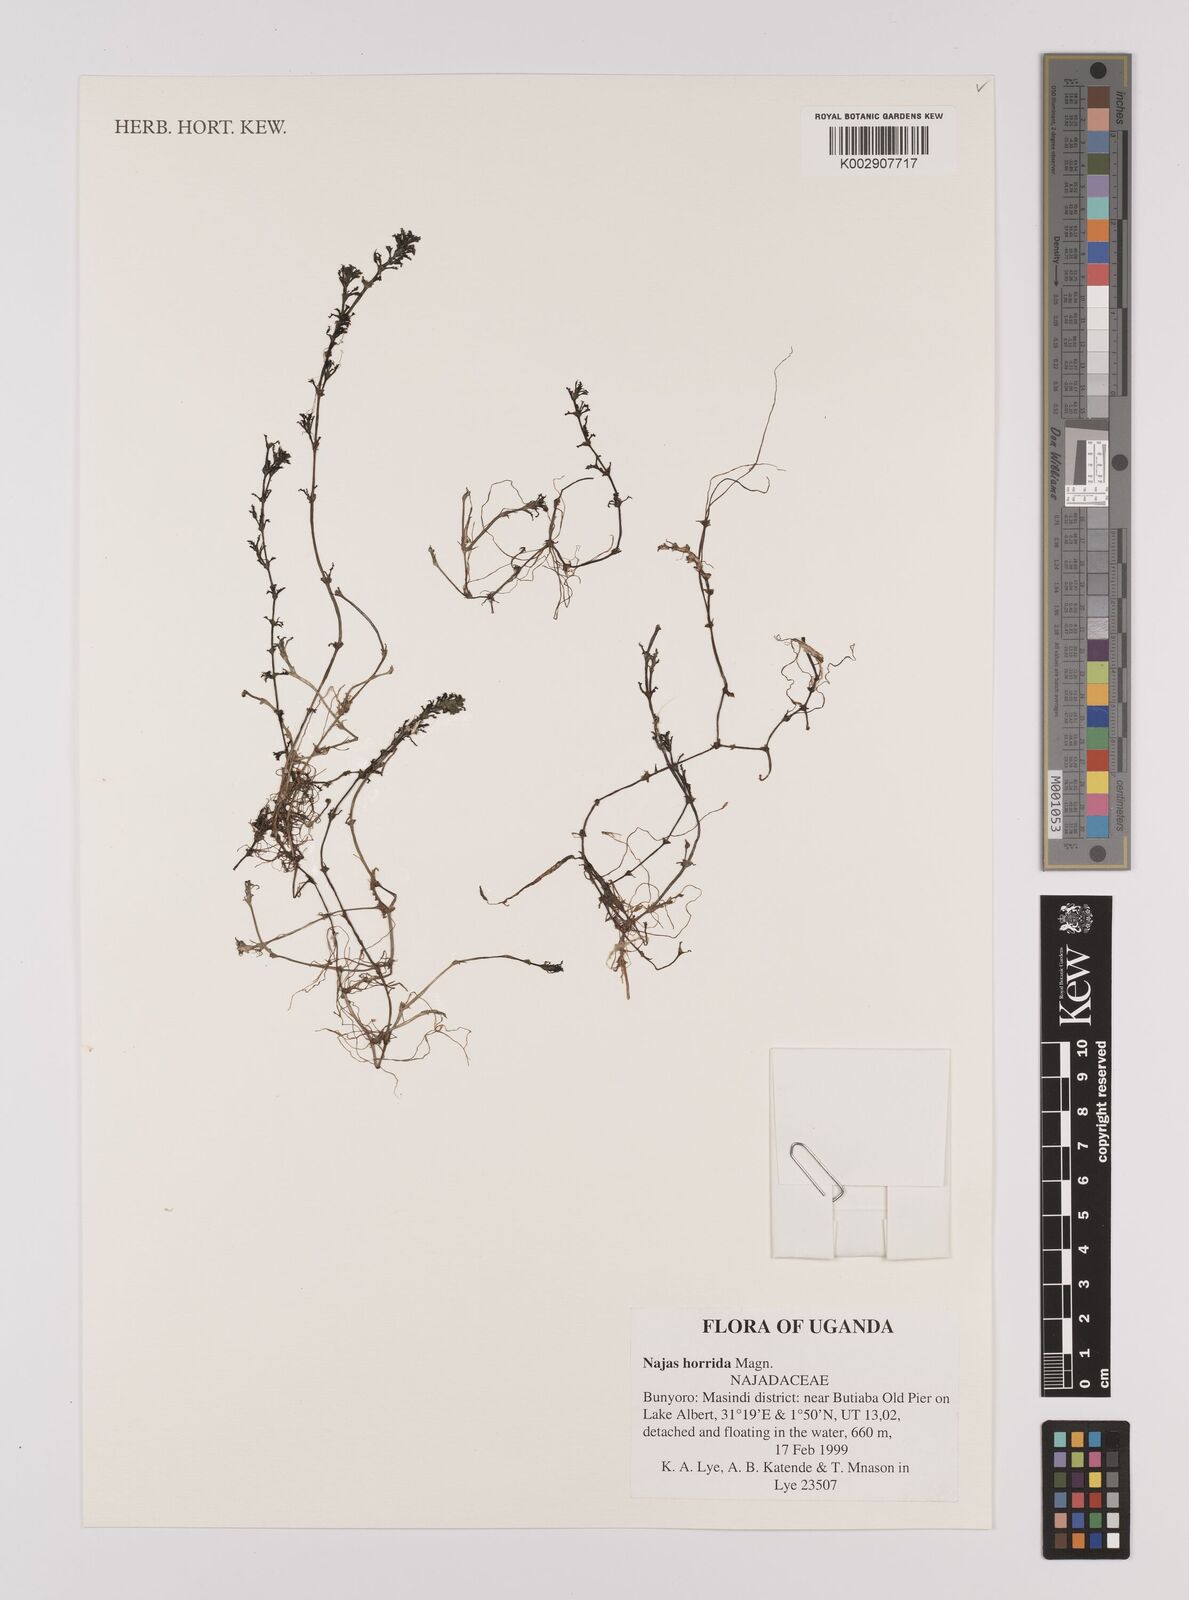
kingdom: Plantae
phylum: Tracheophyta
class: Liliopsida
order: Alismatales
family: Hydrocharitaceae
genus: Najas
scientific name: Najas horrida
